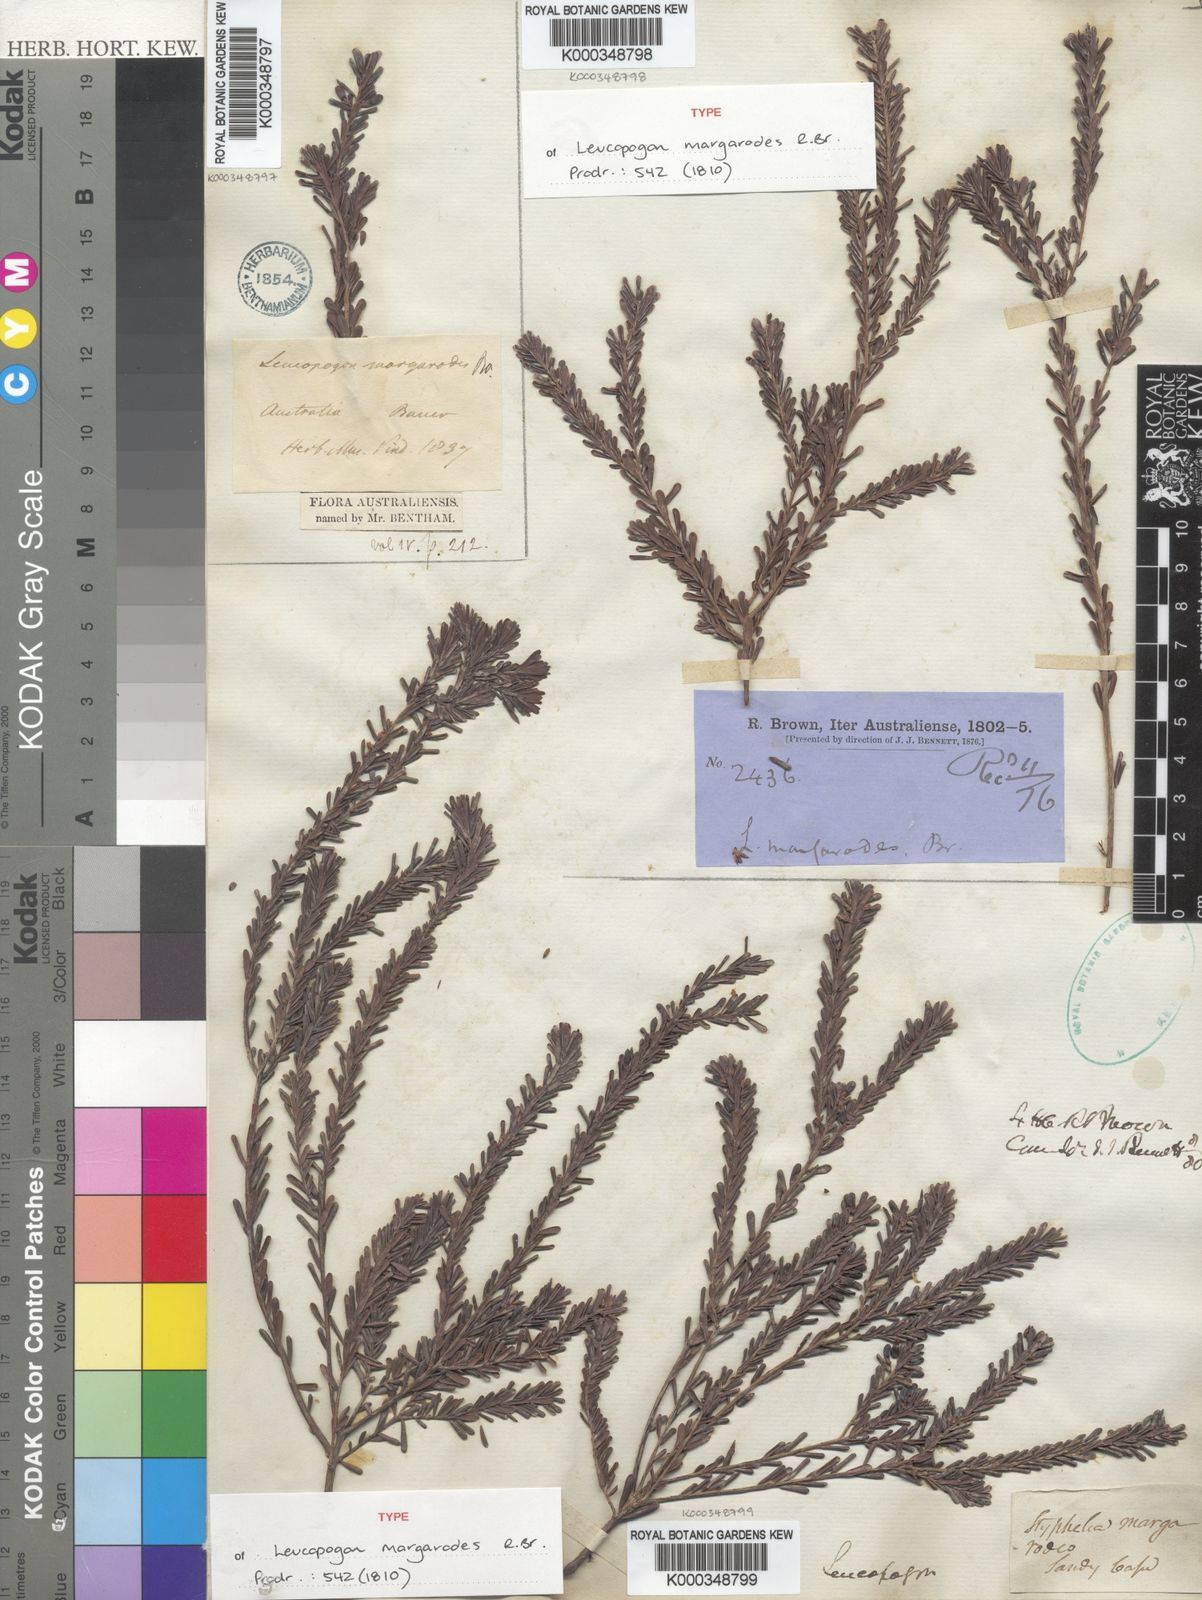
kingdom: Plantae
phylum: Tracheophyta
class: Magnoliopsida
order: Ericales
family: Ericaceae
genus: Styphelia
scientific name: Styphelia margarodes
